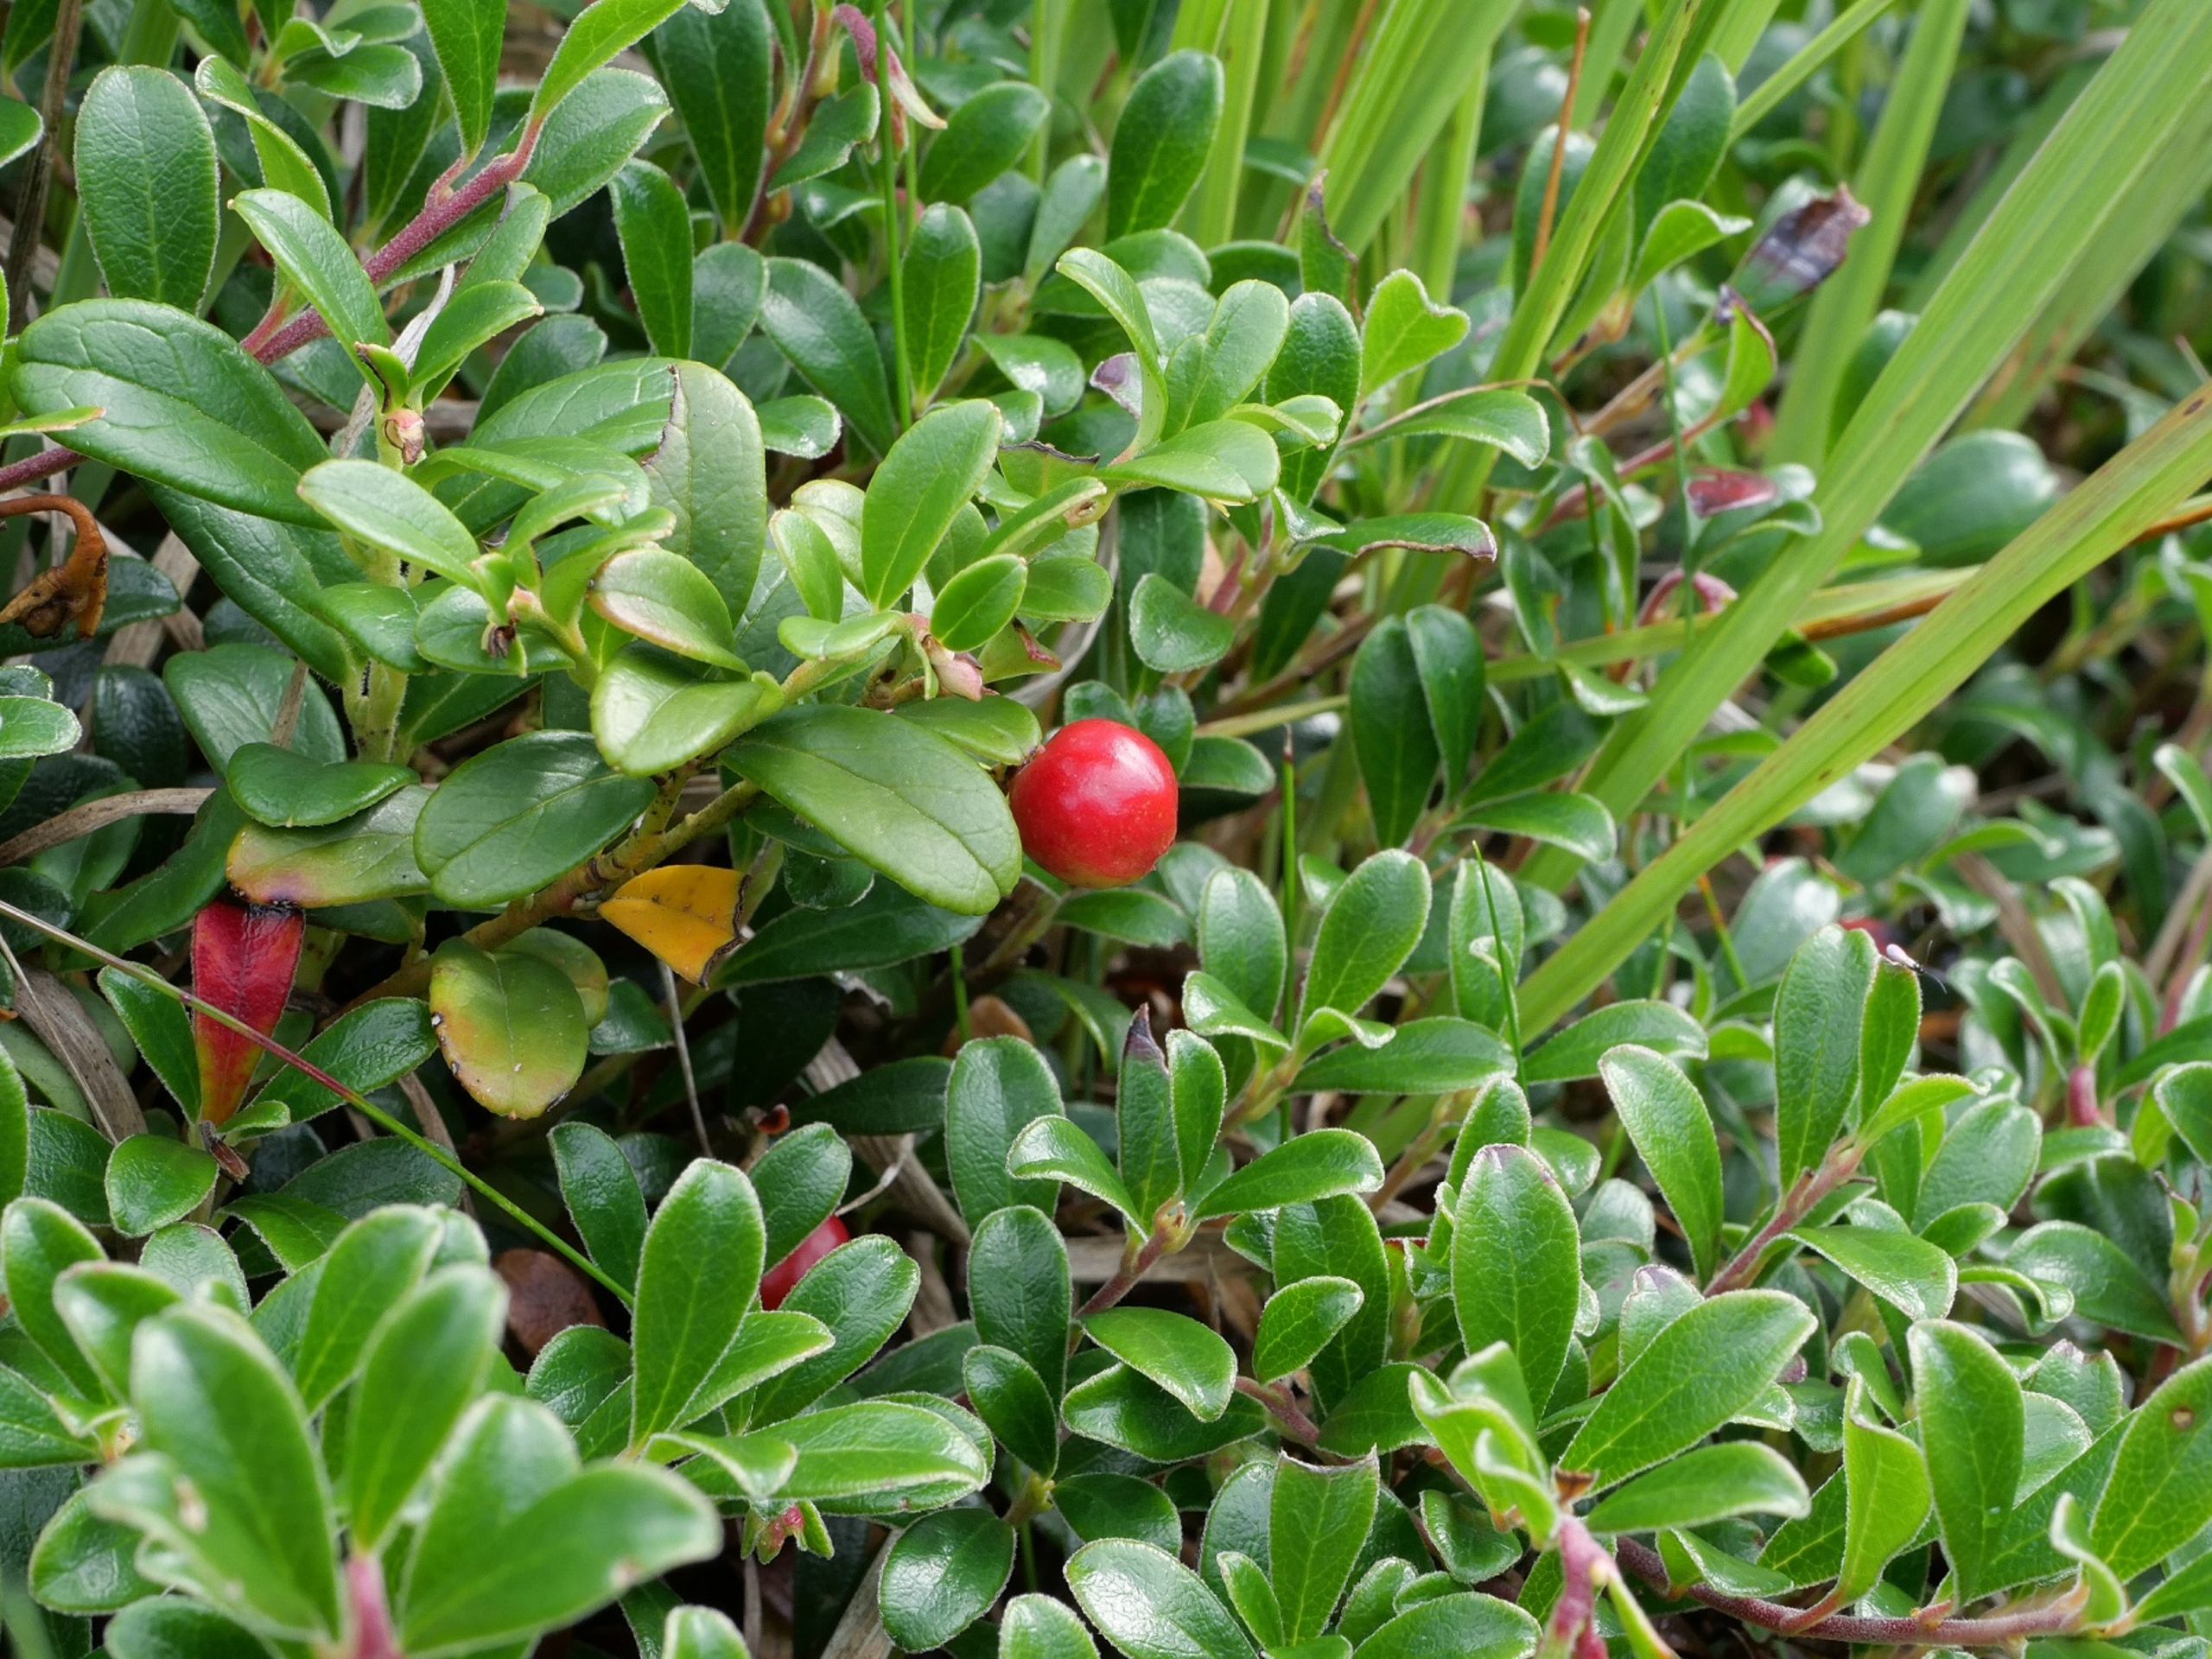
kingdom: Plantae
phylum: Tracheophyta
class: Magnoliopsida
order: Ericales
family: Ericaceae
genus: Arctostaphylos
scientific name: Arctostaphylos uva-ursi
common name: Hede-melbærris
